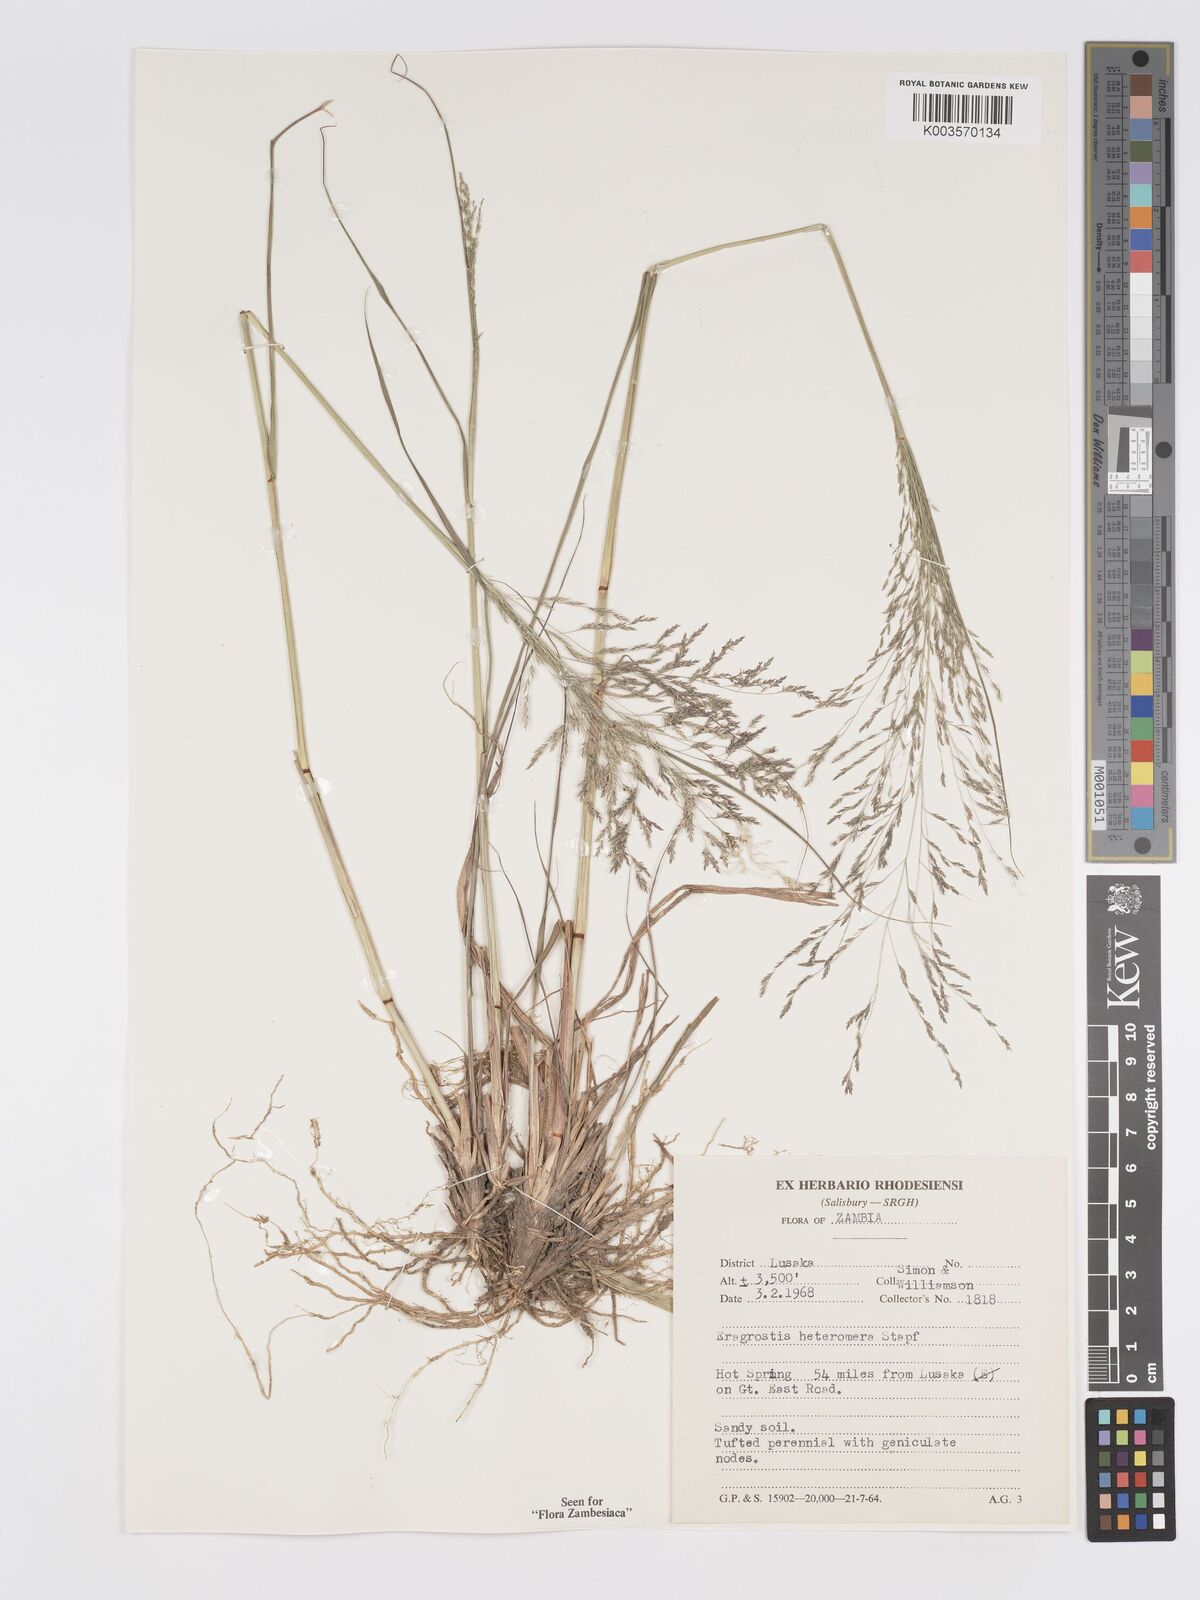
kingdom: Plantae
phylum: Tracheophyta
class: Liliopsida
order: Poales
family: Poaceae
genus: Eragrostis
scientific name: Eragrostis heteromera
